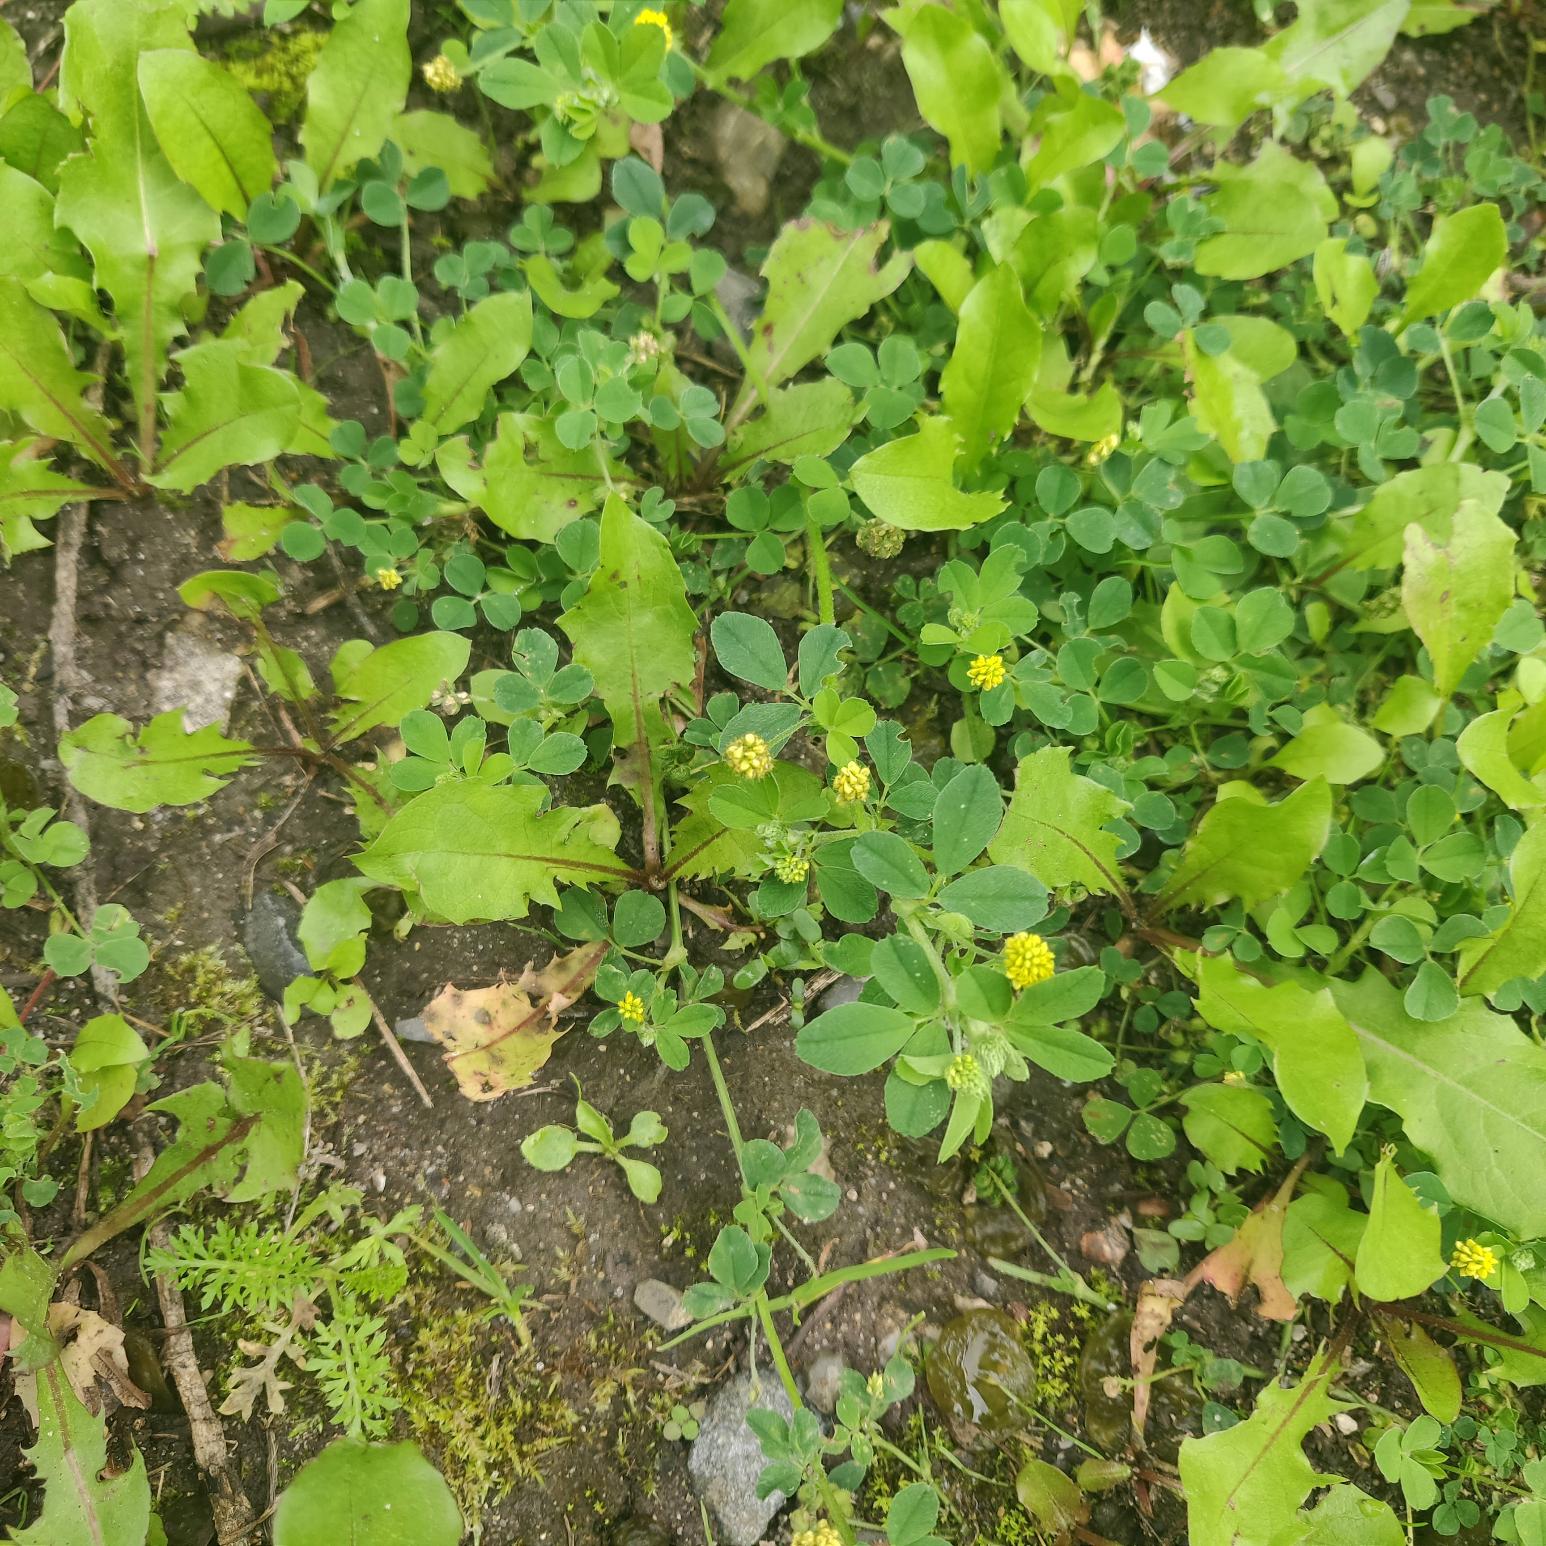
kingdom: Plantae
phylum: Tracheophyta
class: Magnoliopsida
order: Fabales
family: Fabaceae
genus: Medicago
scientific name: Medicago lupulina
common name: Humle-sneglebælg
